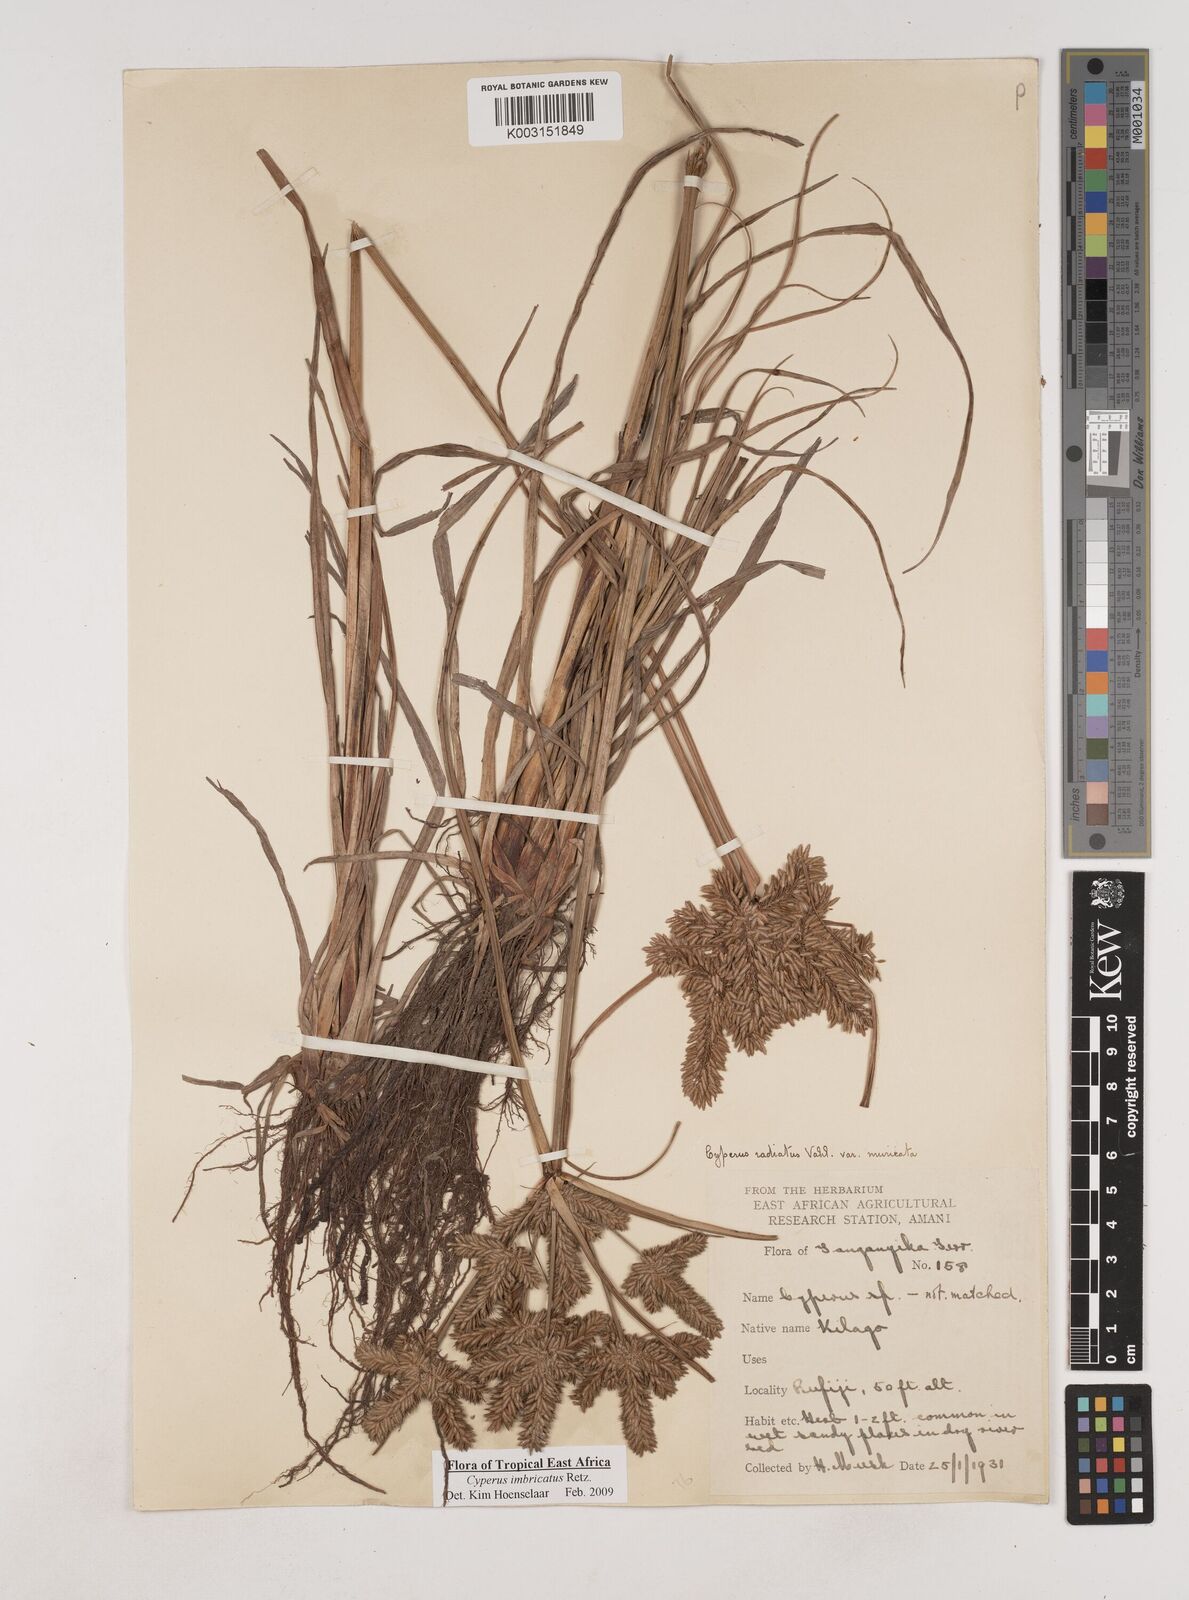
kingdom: Plantae
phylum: Tracheophyta
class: Liliopsida
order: Poales
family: Cyperaceae
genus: Cyperus
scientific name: Cyperus imbricatus
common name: Shingle flatsedge
